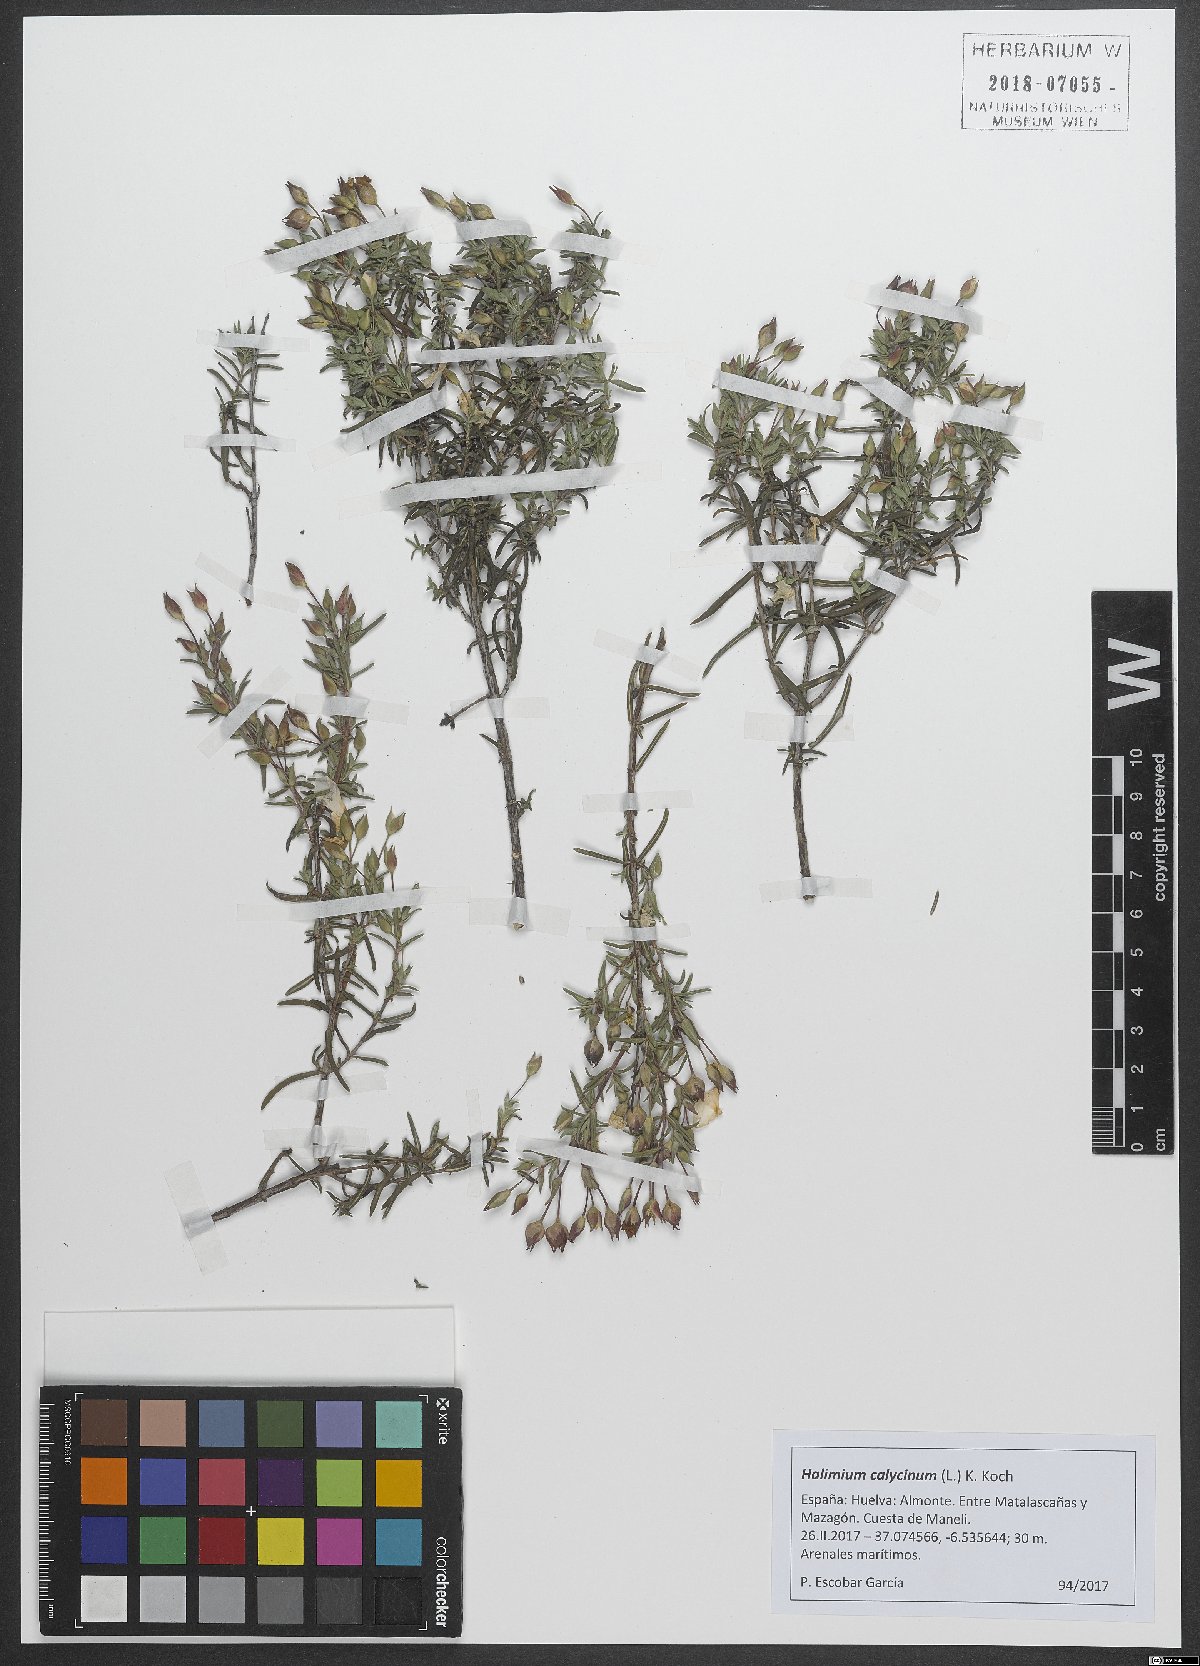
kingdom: Plantae
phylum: Tracheophyta
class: Magnoliopsida
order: Malvales
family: Cistaceae
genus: Halimium
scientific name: Halimium calycinum
